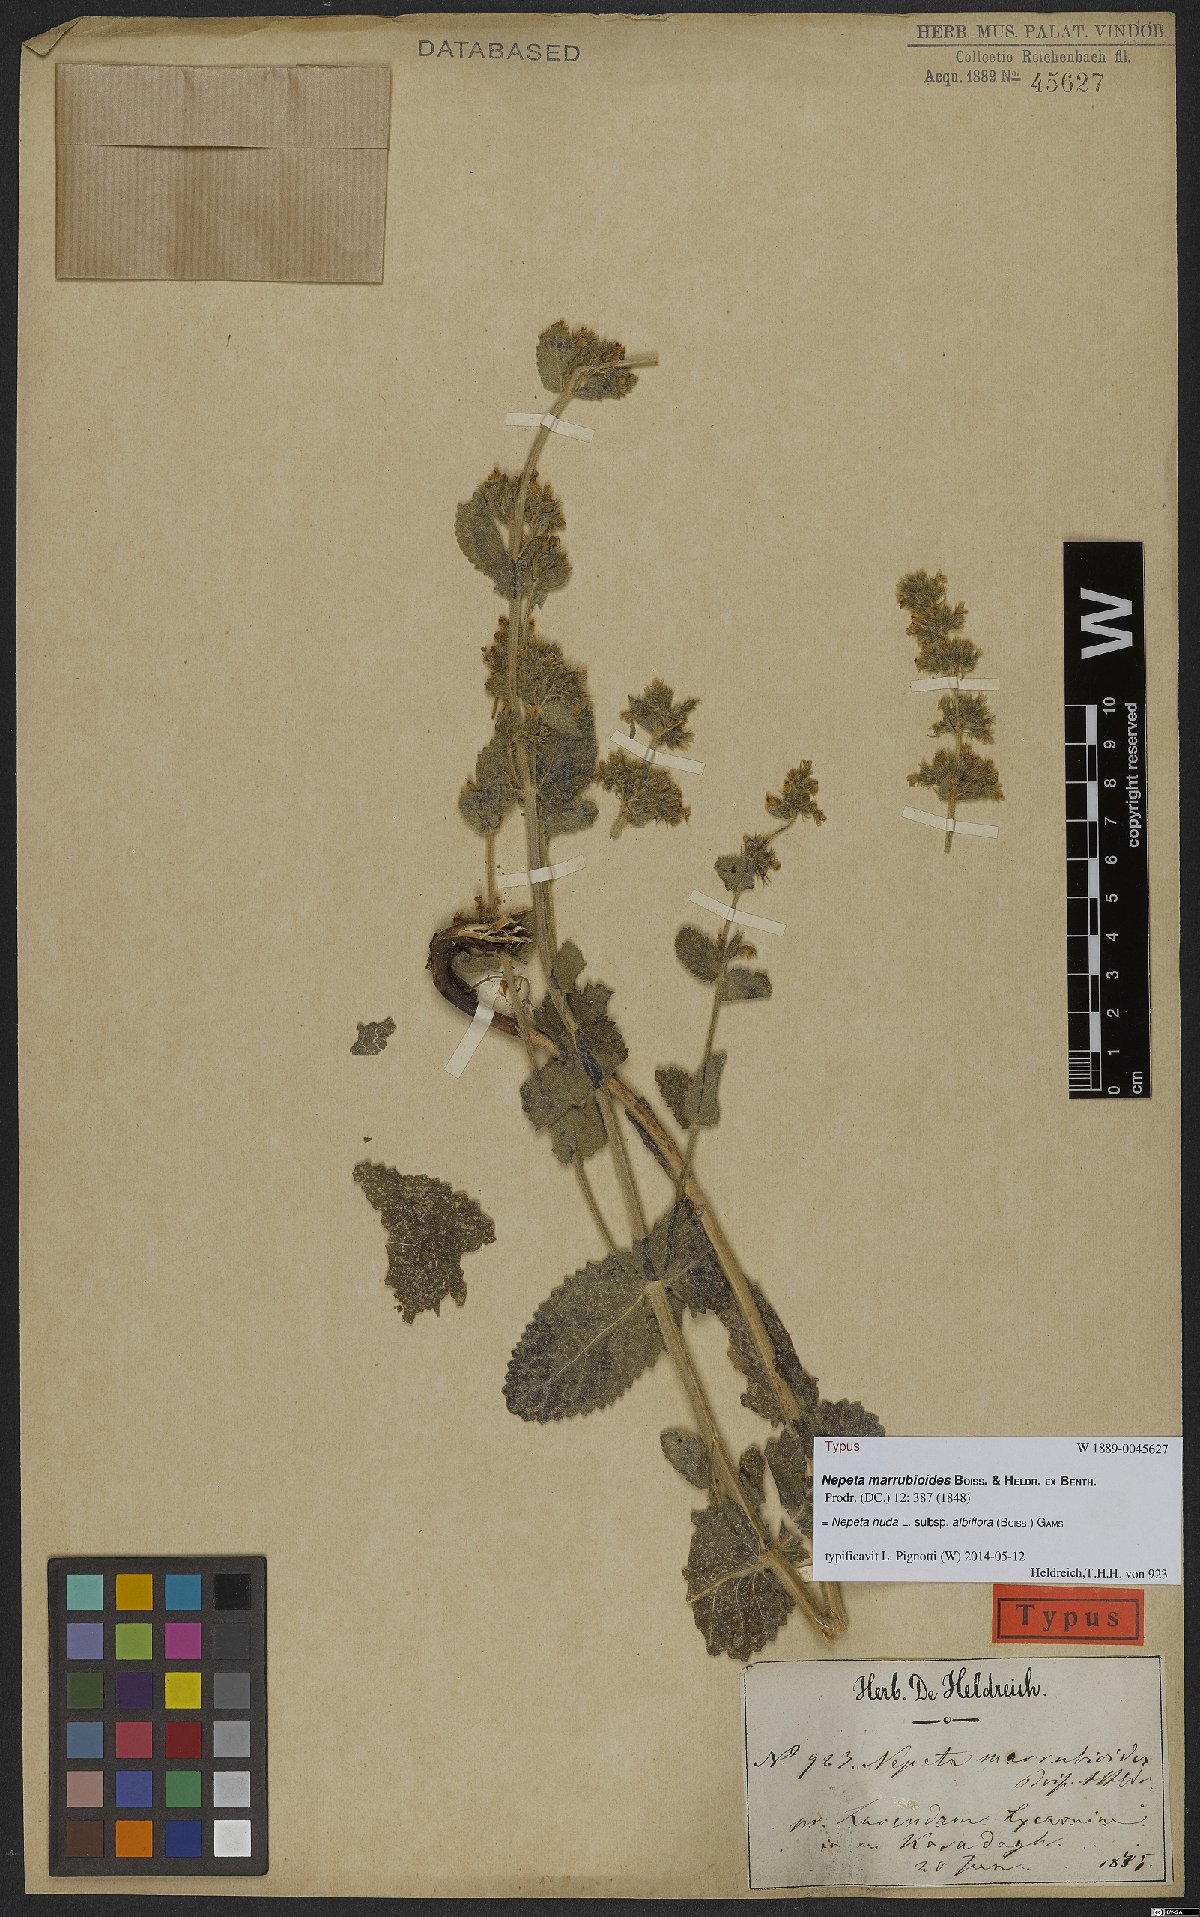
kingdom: Plantae
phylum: Tracheophyta
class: Magnoliopsida
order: Lamiales
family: Lamiaceae
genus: Nepeta
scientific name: Nepeta nuda
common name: Hairless catmint
